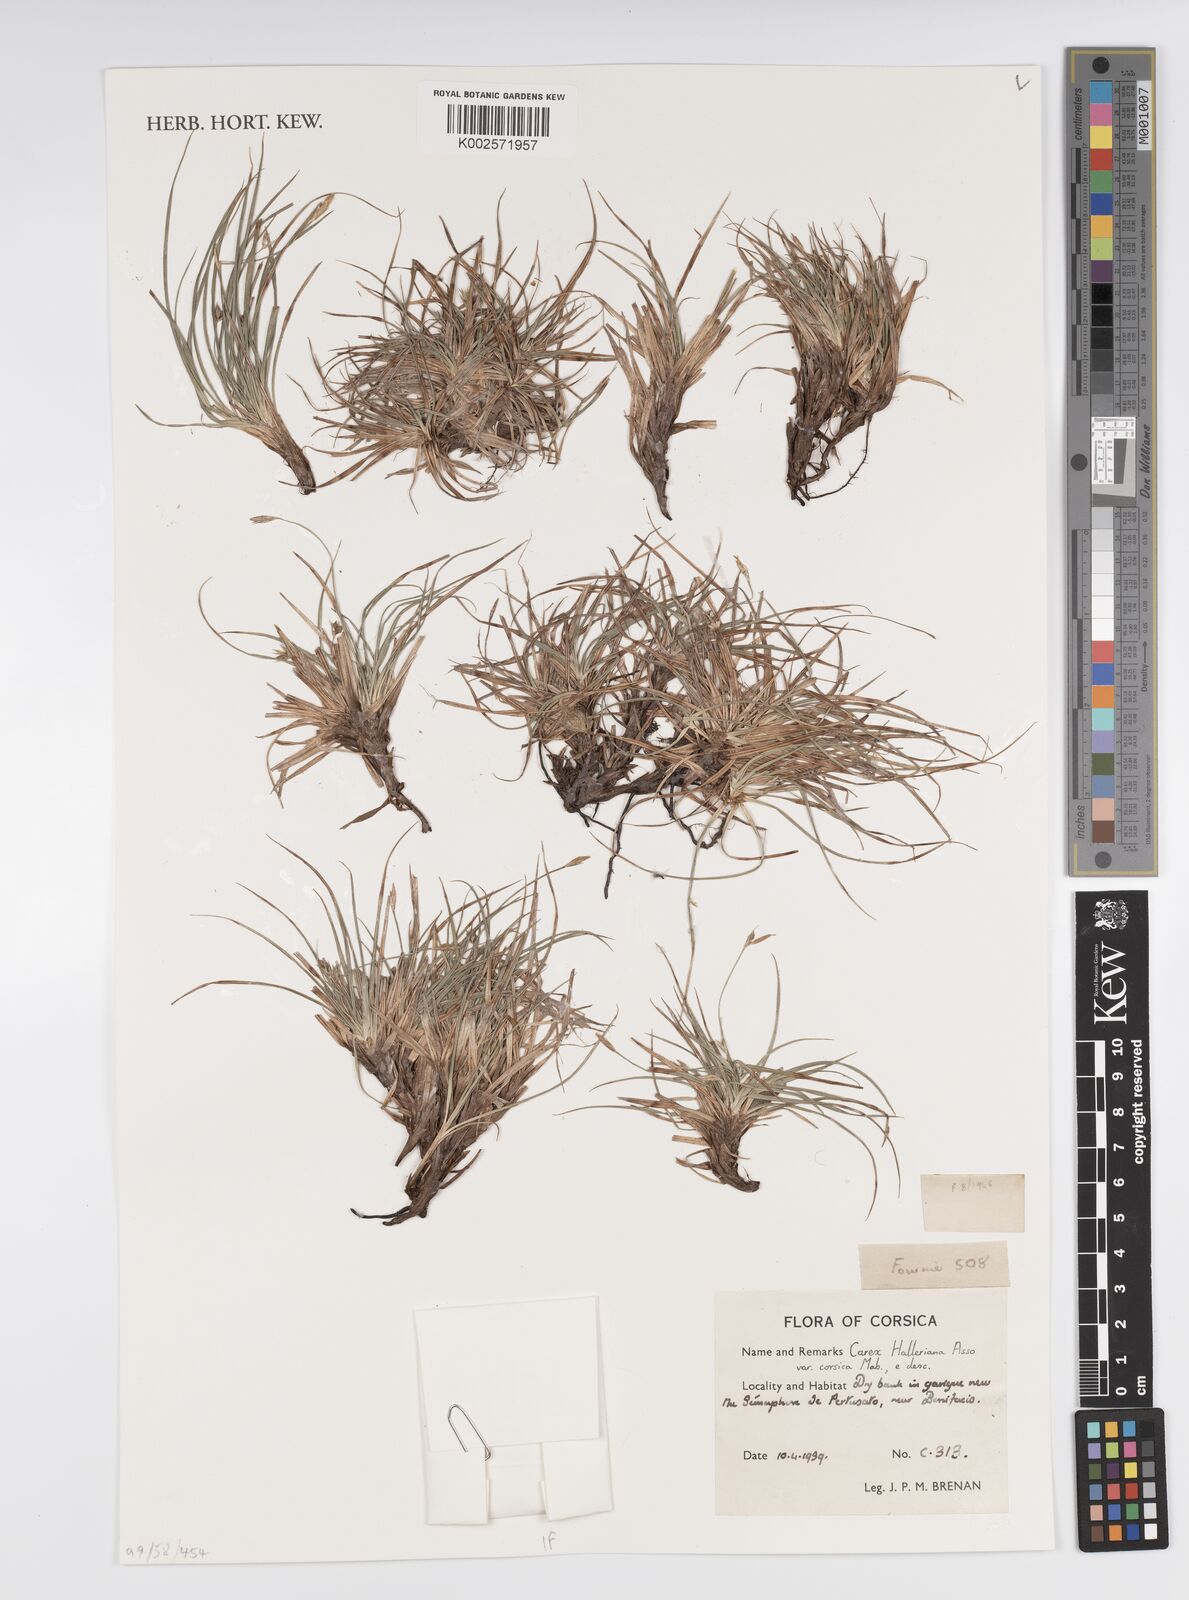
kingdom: Plantae
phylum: Tracheophyta
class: Liliopsida
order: Poales
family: Cyperaceae
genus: Carex
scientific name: Carex halleriana
